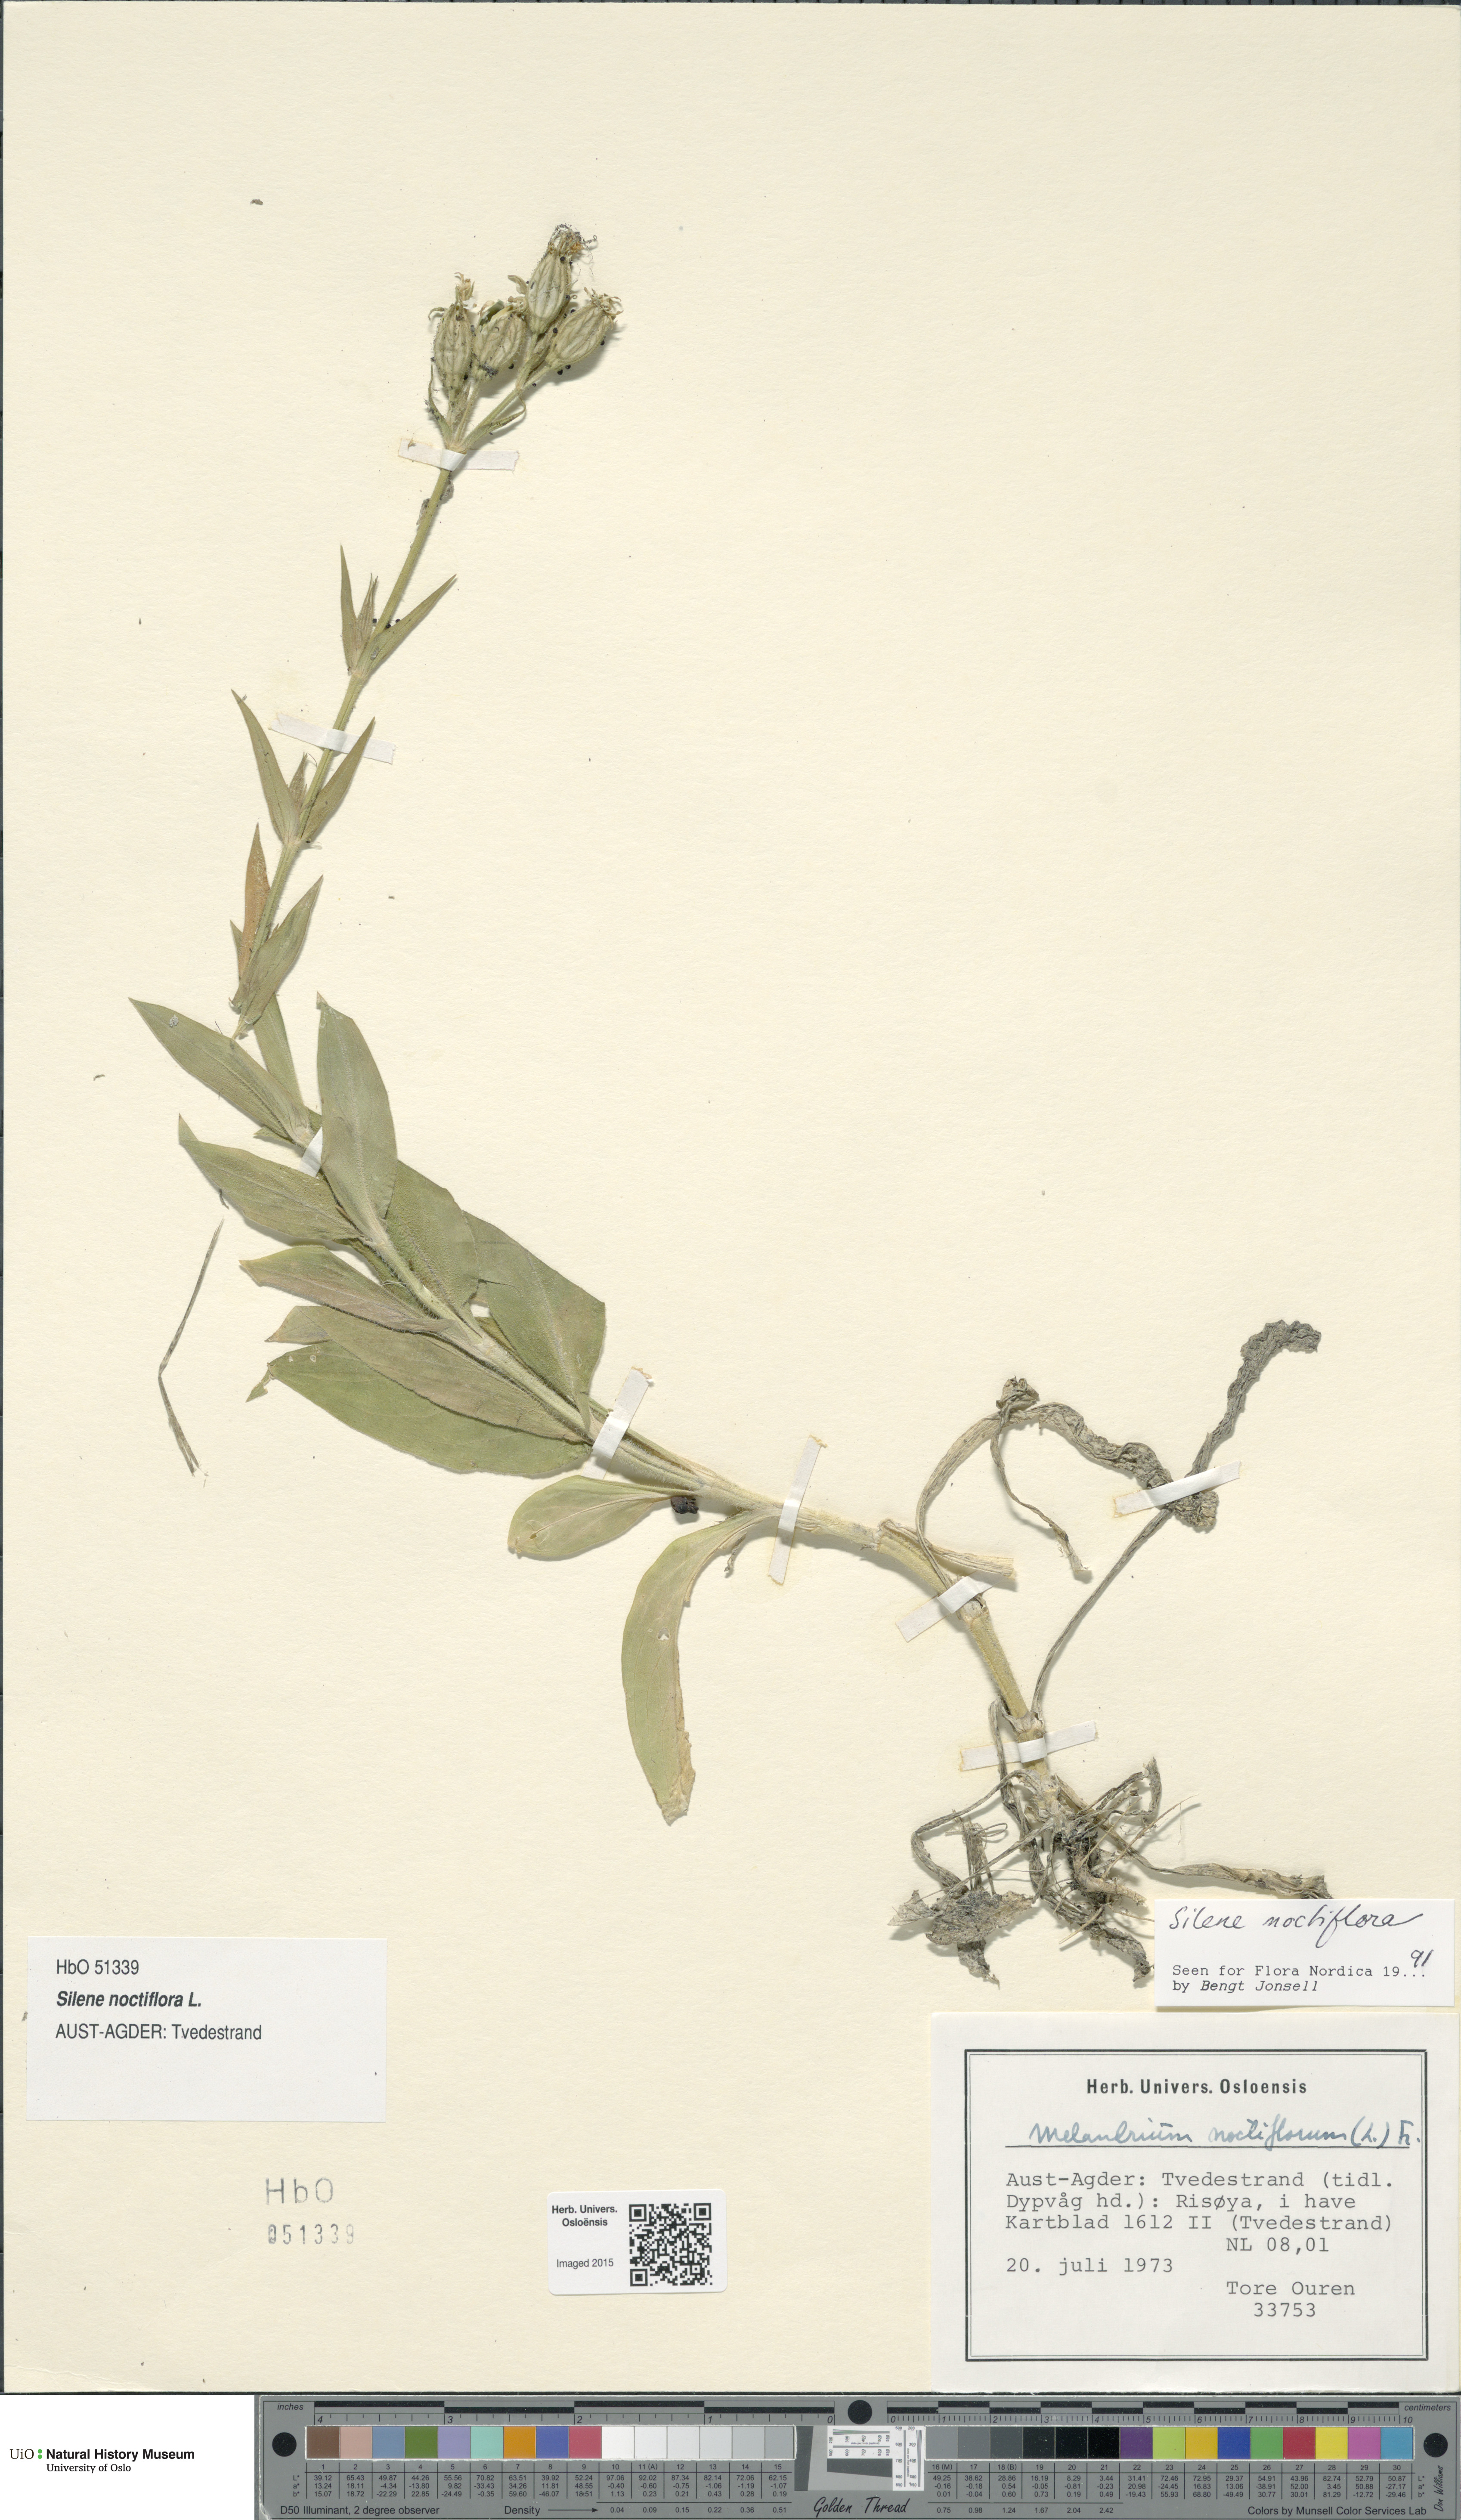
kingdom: Plantae
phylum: Tracheophyta
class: Magnoliopsida
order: Caryophyllales
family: Caryophyllaceae
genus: Silene
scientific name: Silene noctiflora
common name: Night-flowering catchfly
